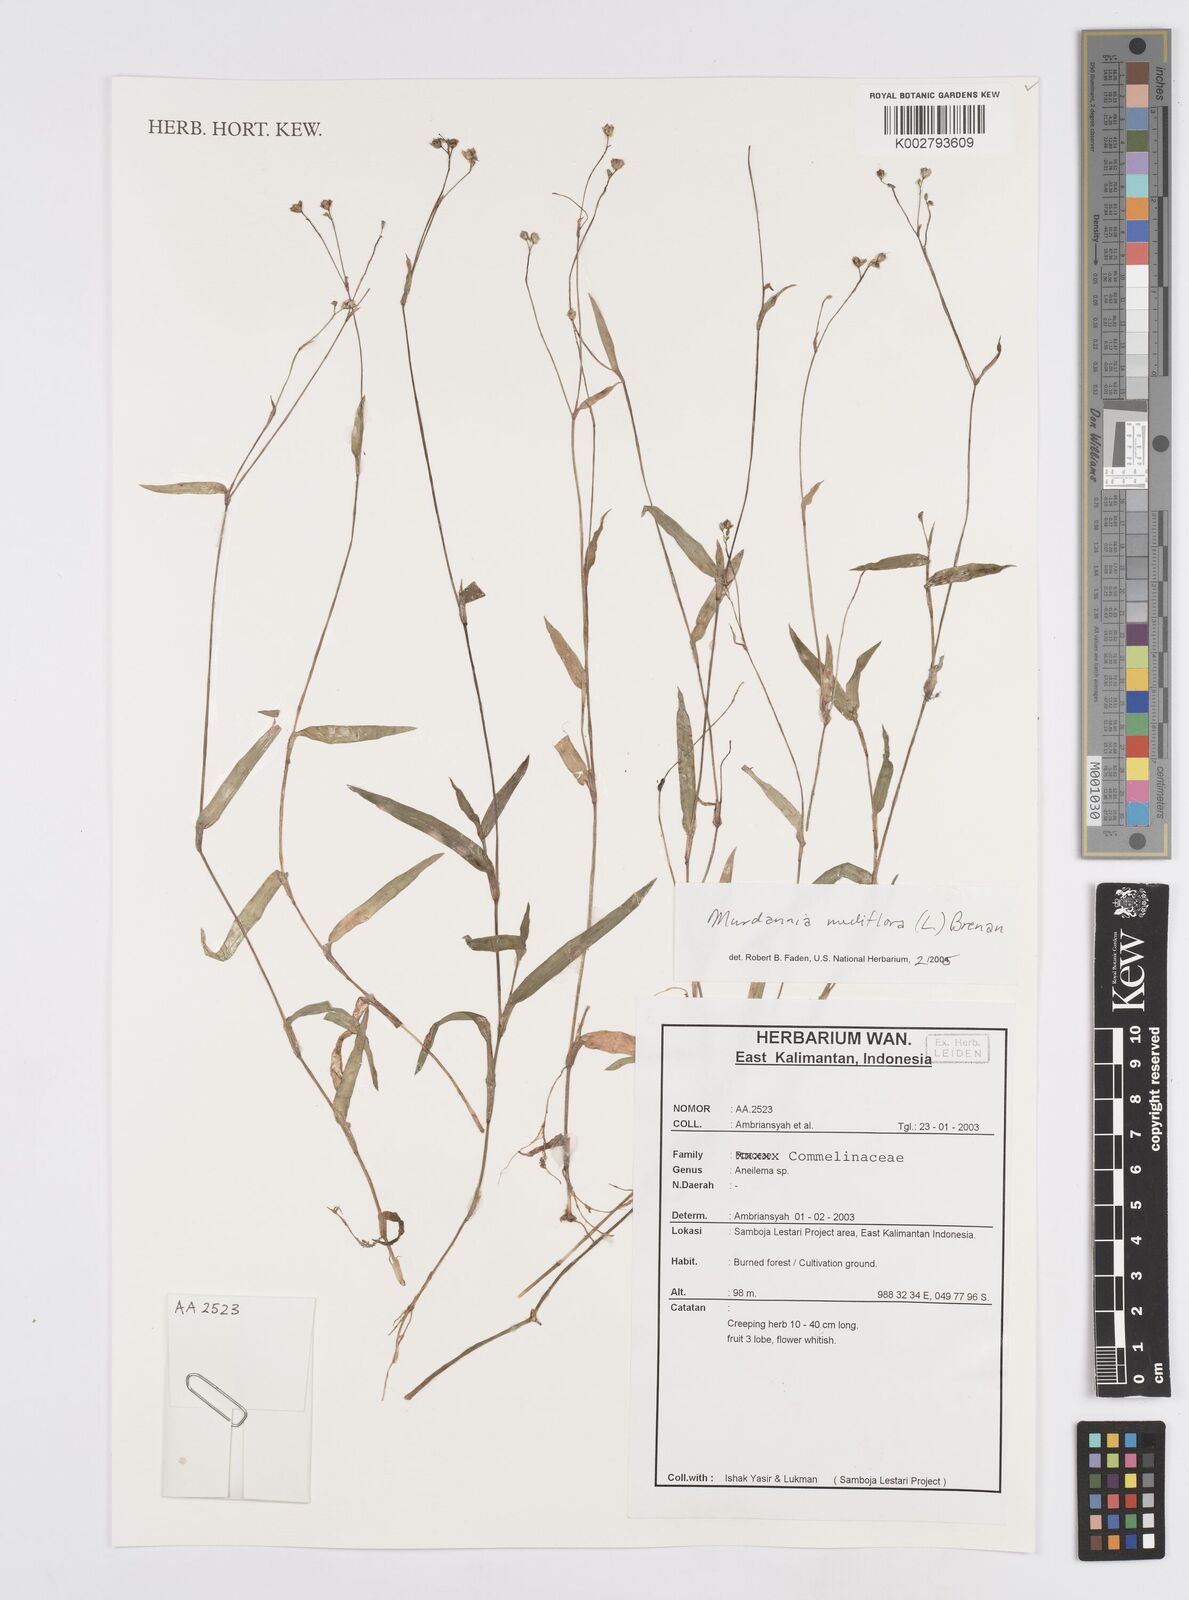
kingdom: Plantae
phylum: Tracheophyta
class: Liliopsida
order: Commelinales
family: Commelinaceae
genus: Murdannia
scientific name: Murdannia nudiflora
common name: Nakedstem dewflower
